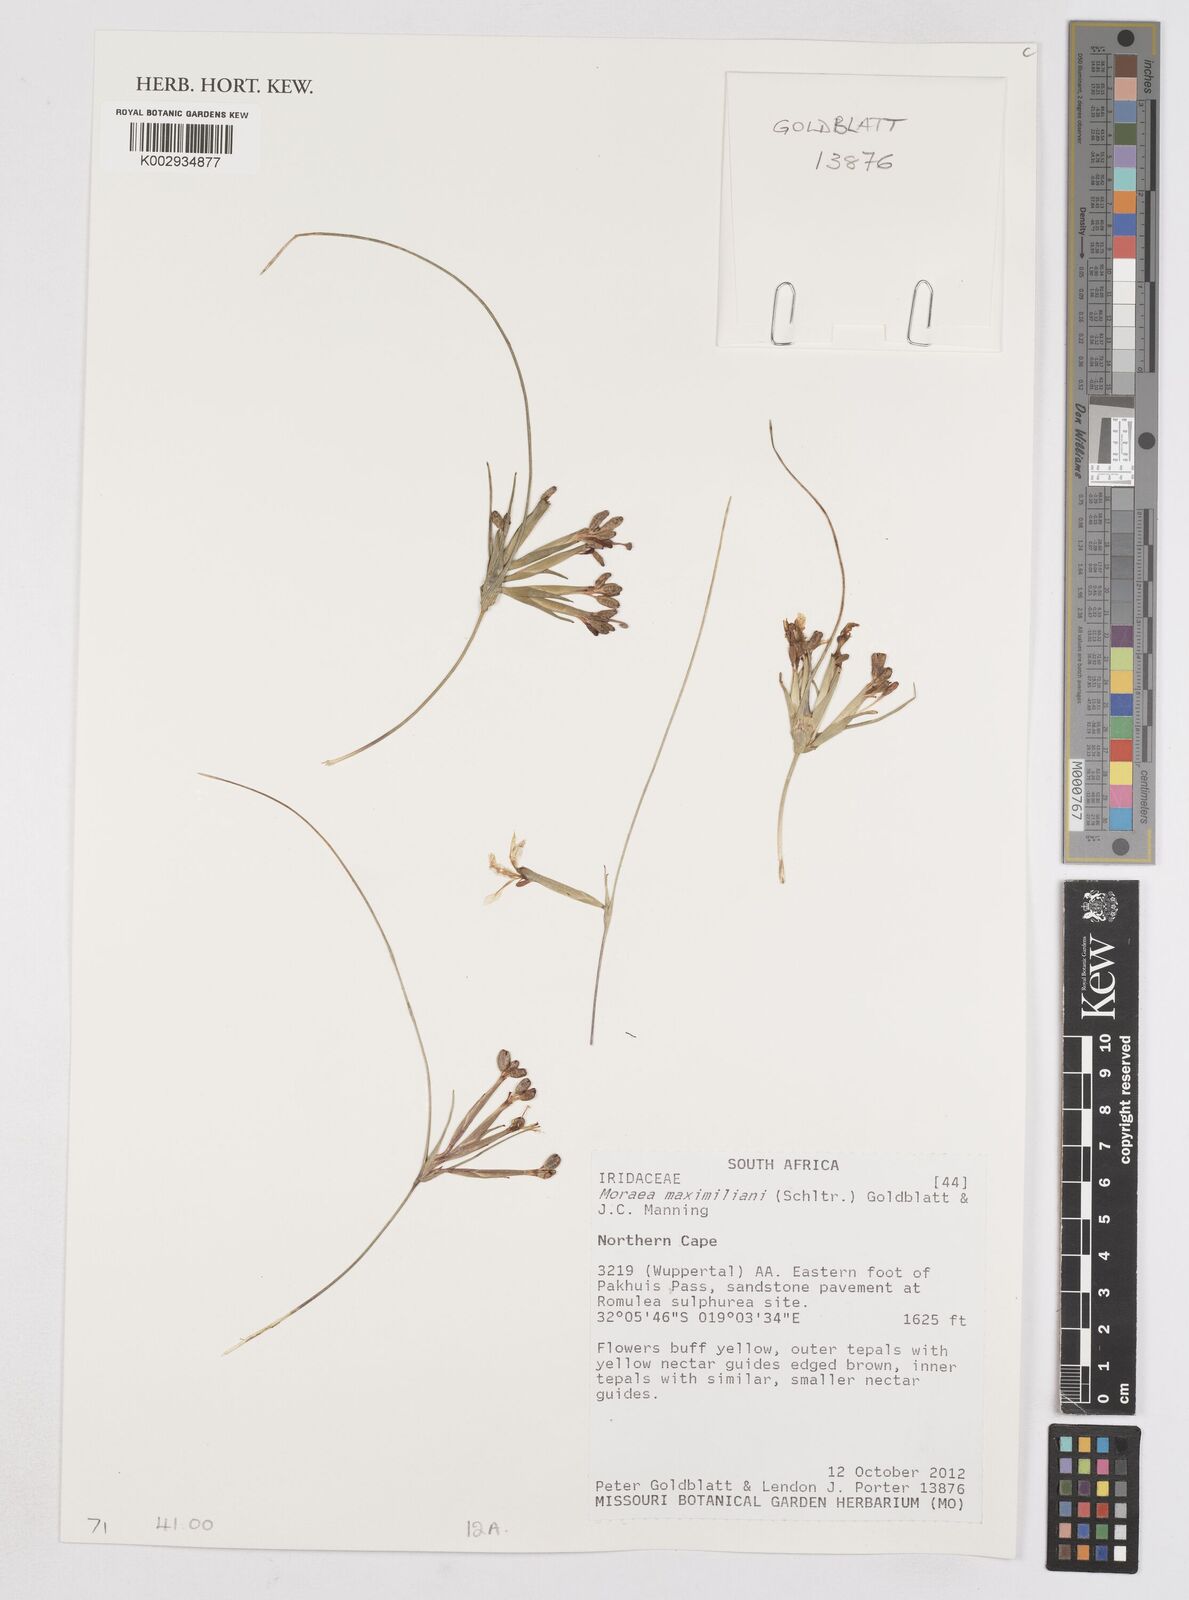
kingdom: Plantae
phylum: Tracheophyta
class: Liliopsida
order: Asparagales
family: Iridaceae
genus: Moraea
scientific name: Moraea maximiliani
